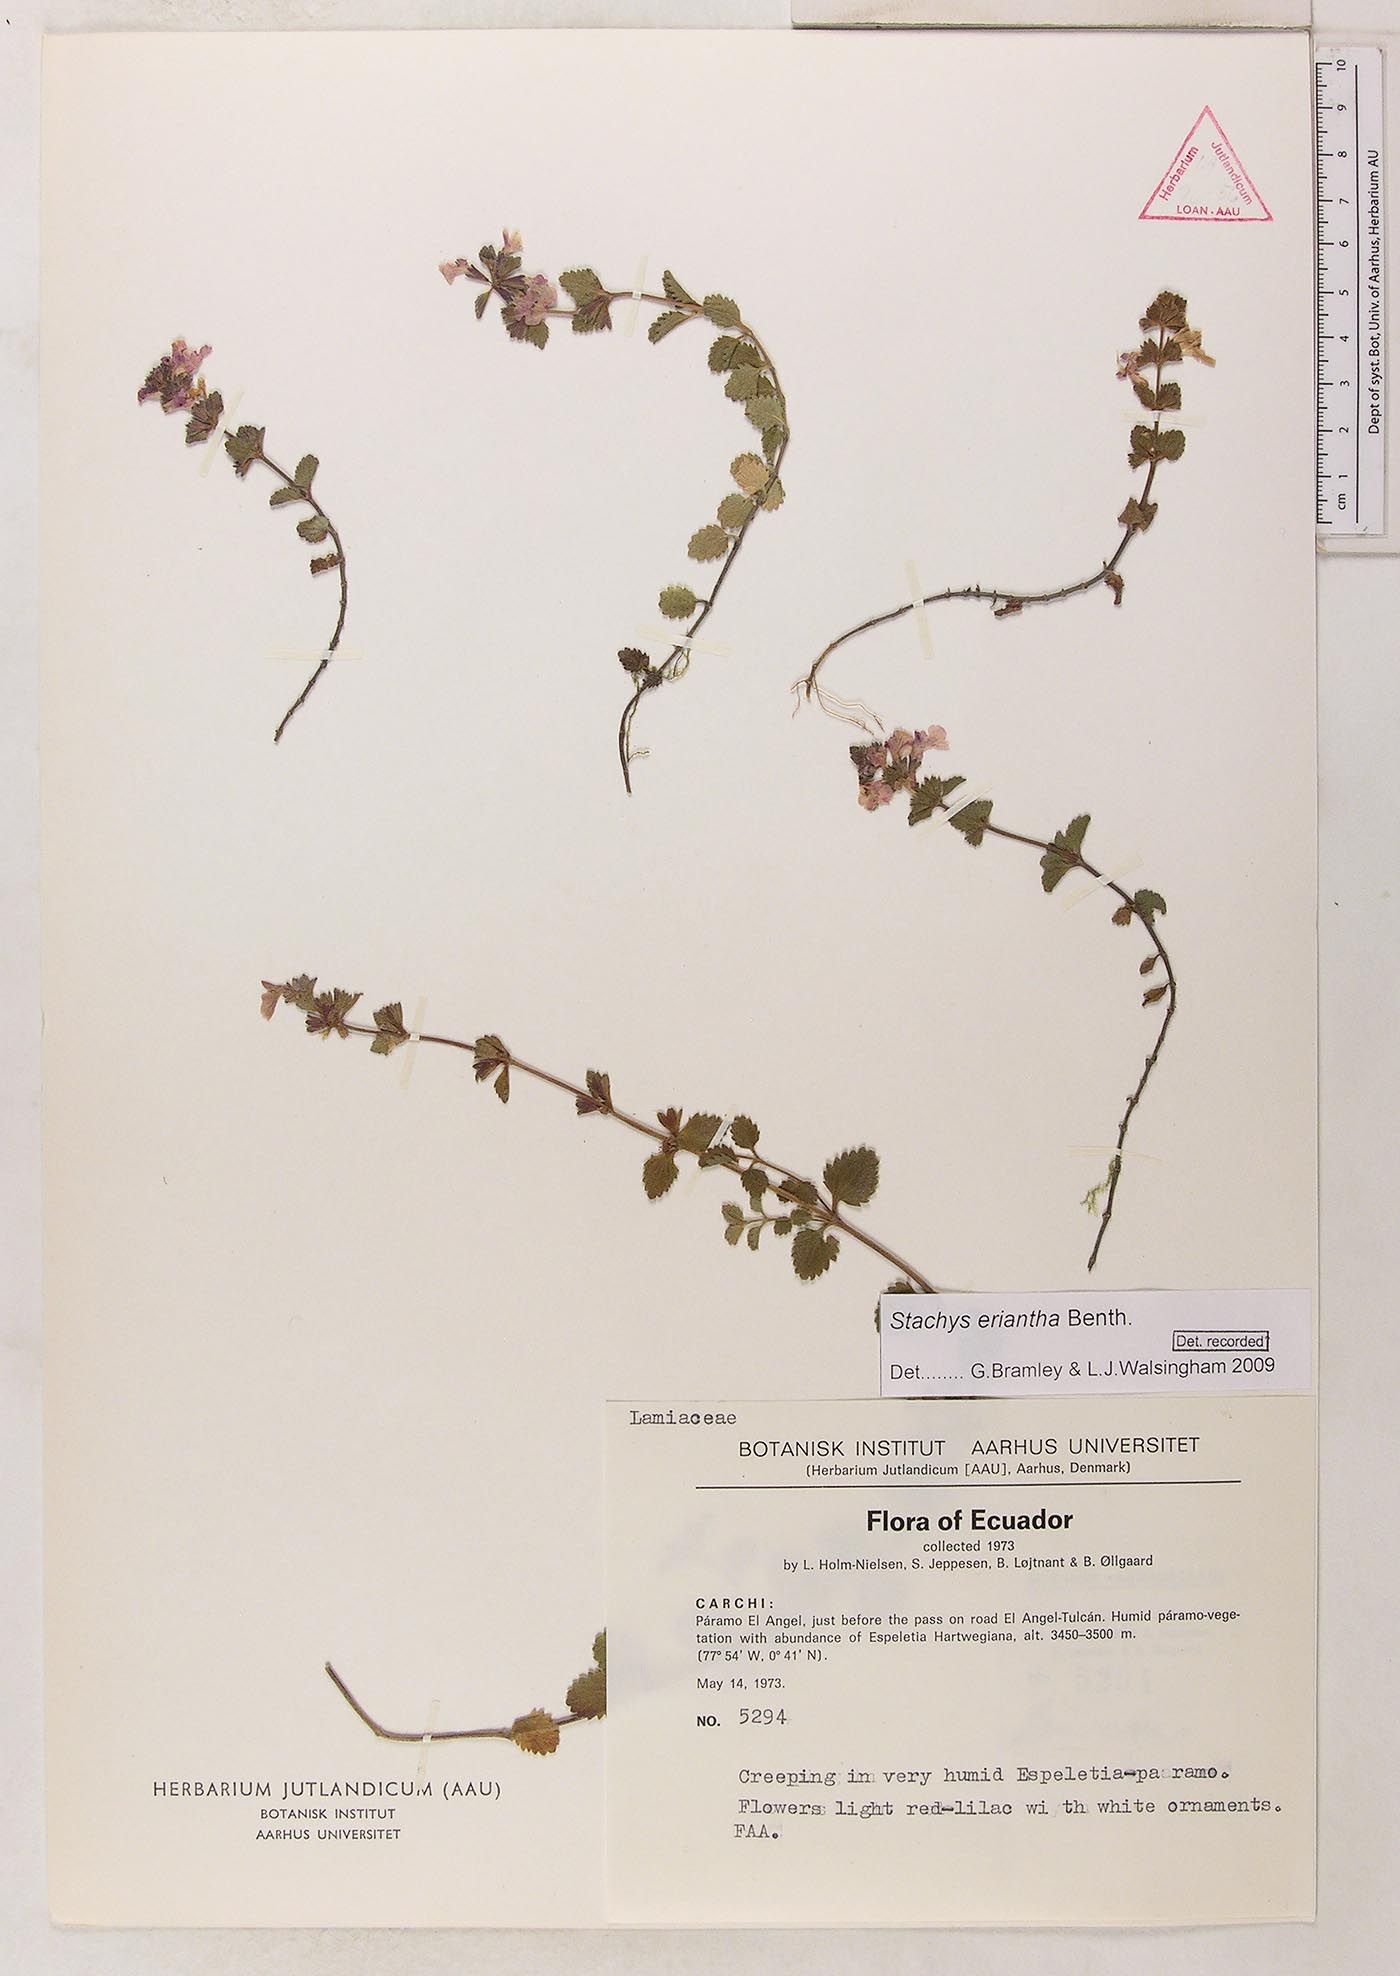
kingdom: Plantae
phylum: Tracheophyta
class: Magnoliopsida
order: Lamiales
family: Lamiaceae
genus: Stachys
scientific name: Stachys eriantha
